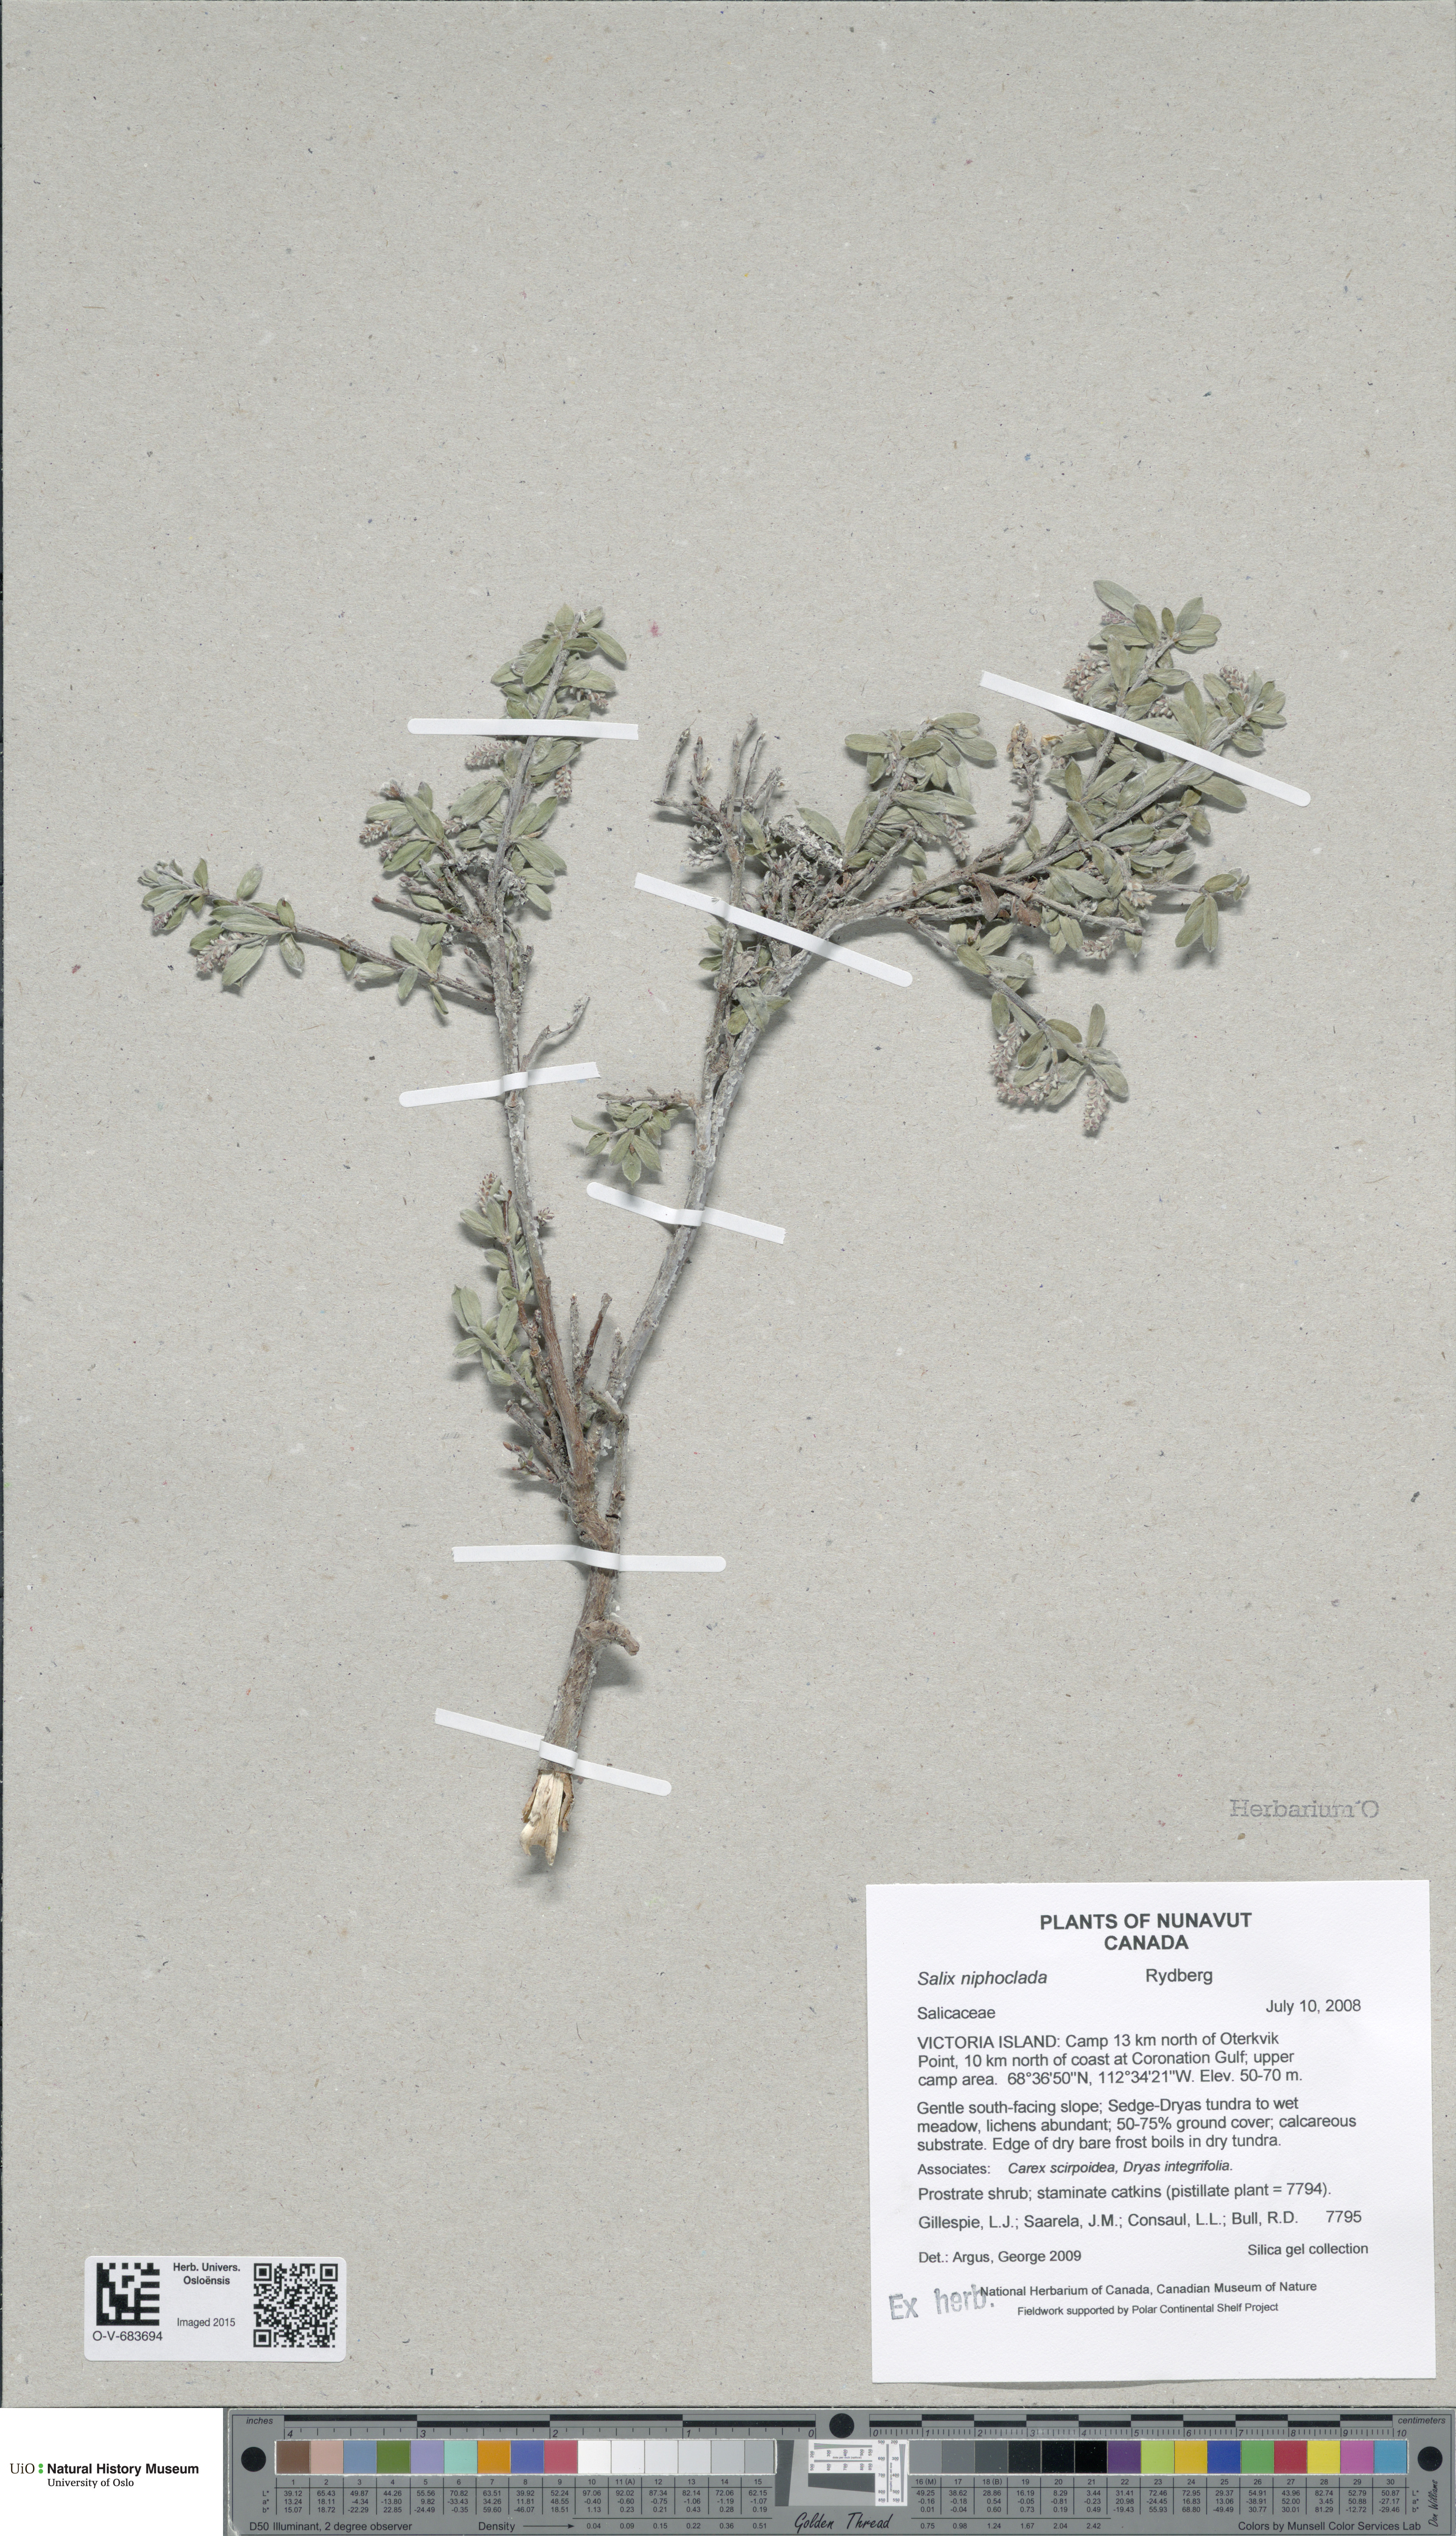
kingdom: Plantae
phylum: Tracheophyta
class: Magnoliopsida
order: Malpighiales
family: Salicaceae
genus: Salix
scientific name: Salix niphoclada
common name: Barren-ground willow
